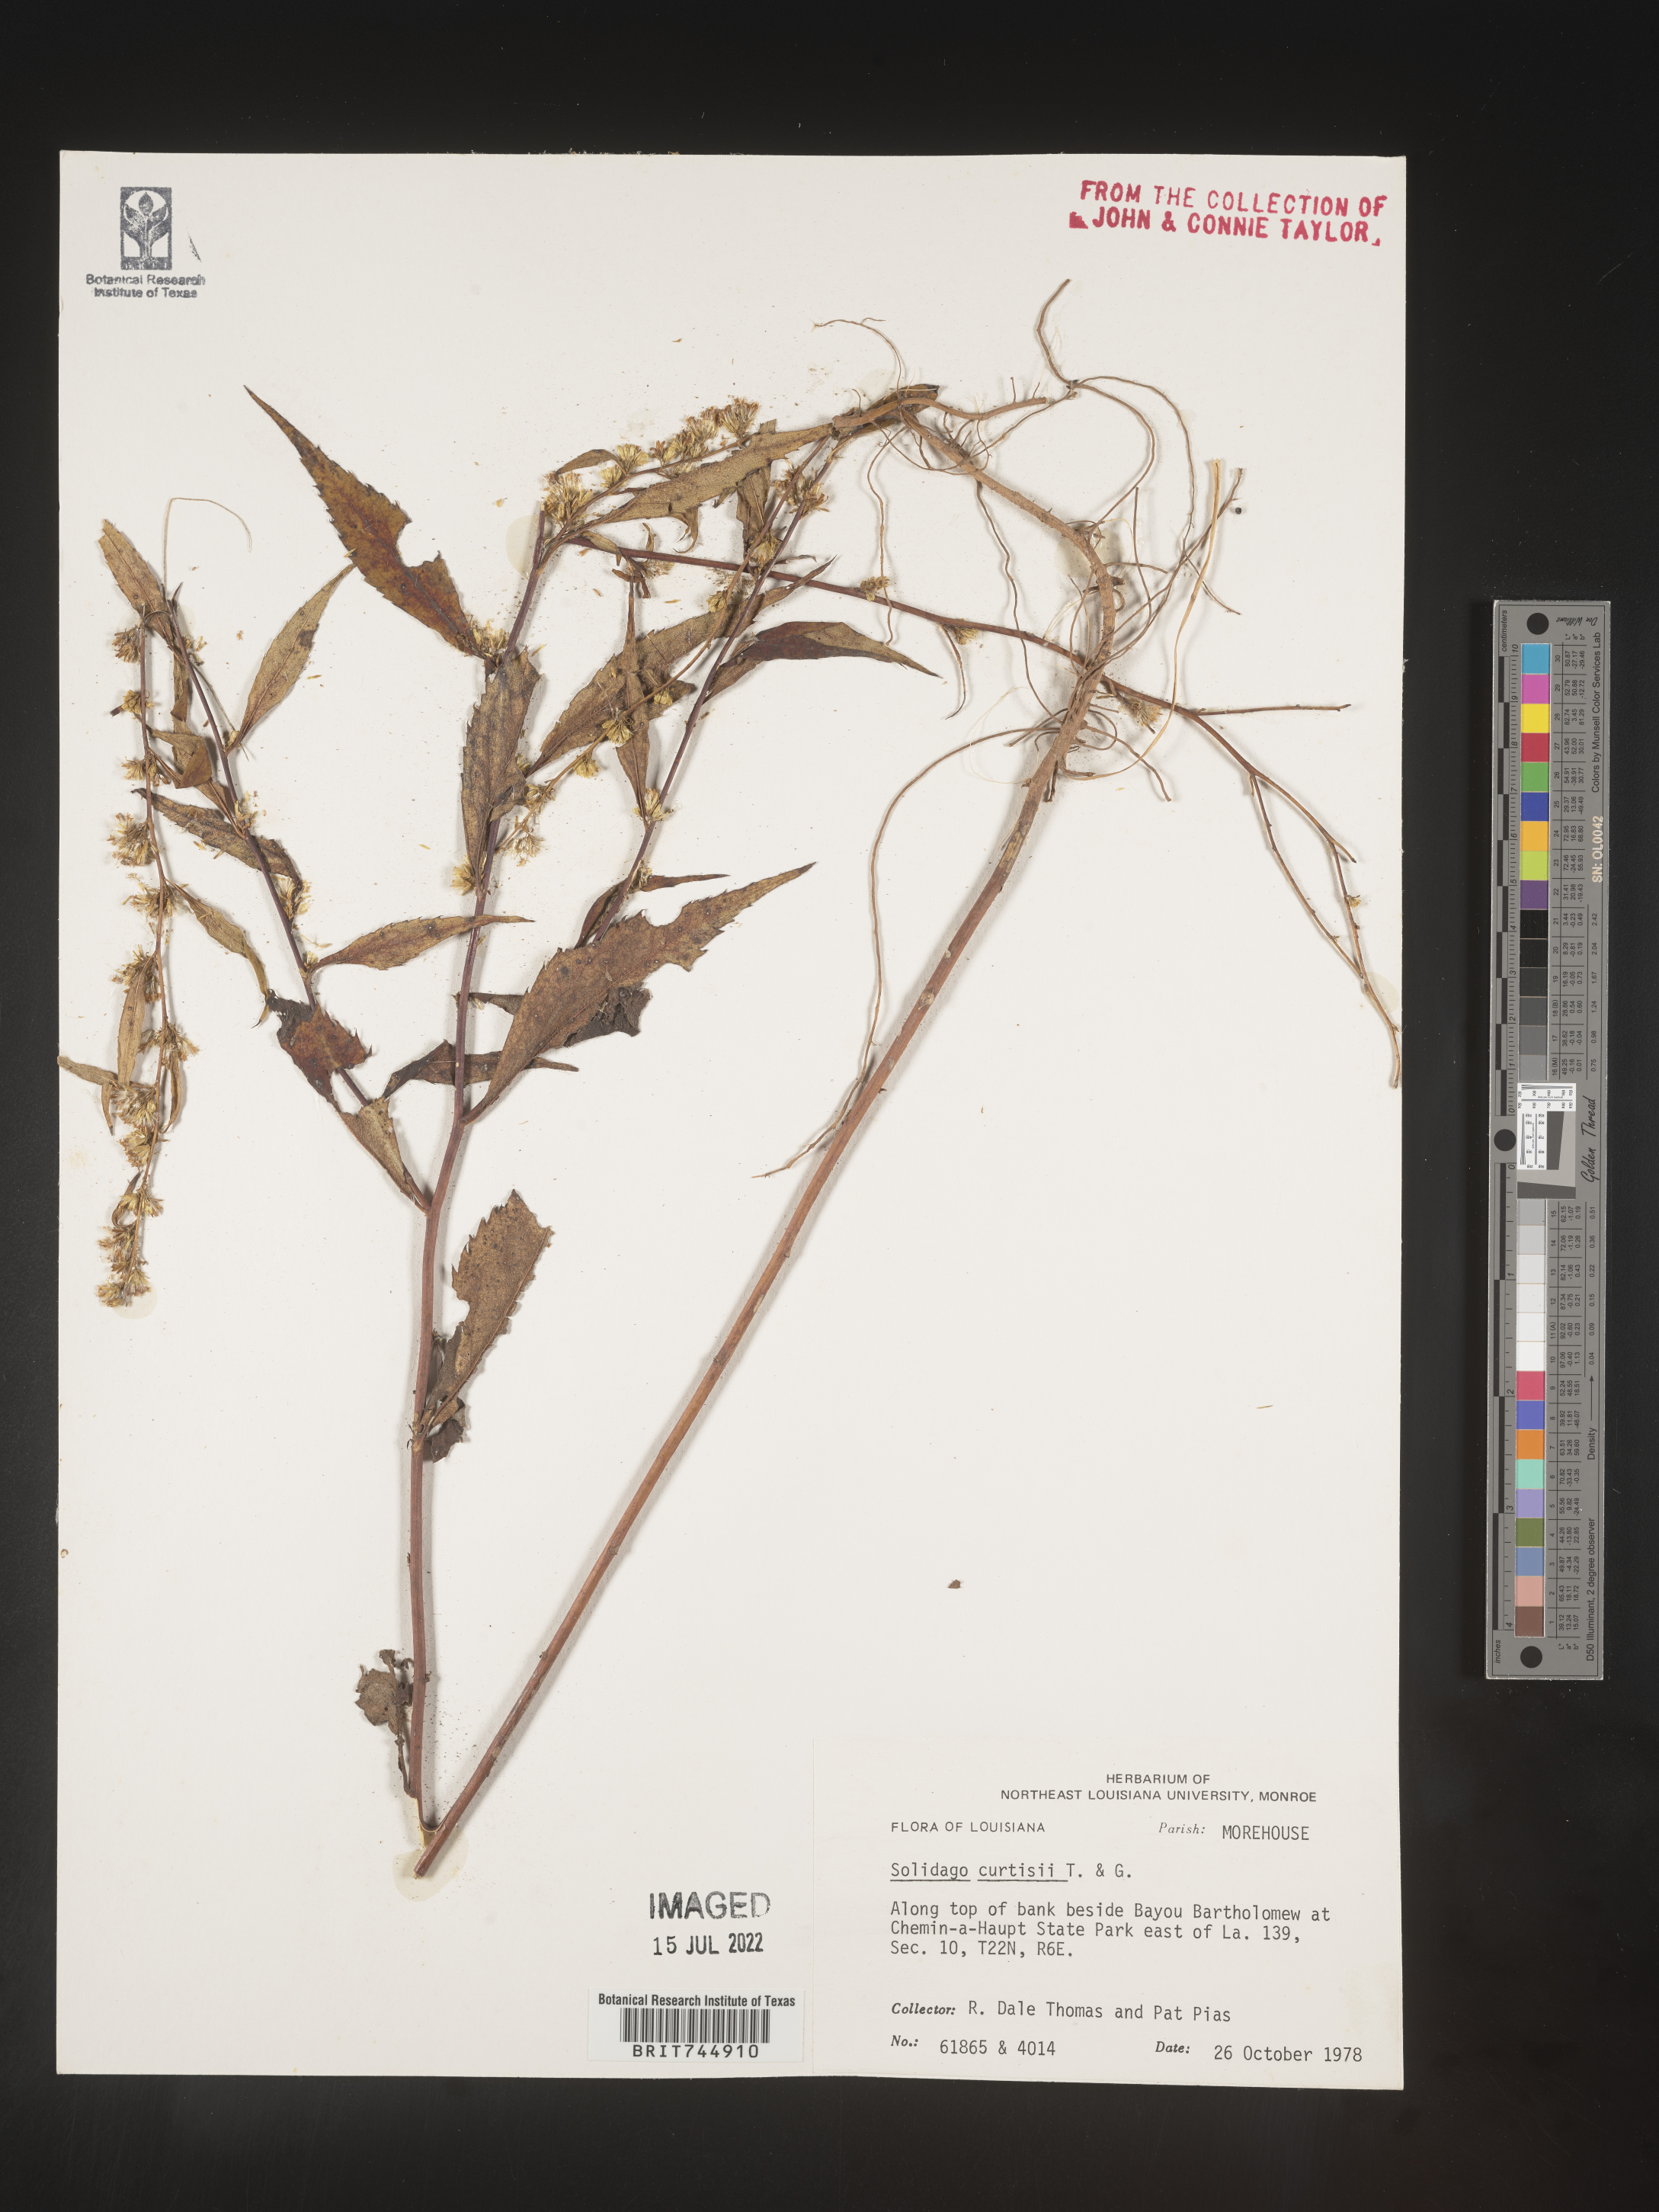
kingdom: Plantae
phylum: Tracheophyta
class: Magnoliopsida
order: Asterales
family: Asteraceae
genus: Solidago
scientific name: Solidago curtisii
